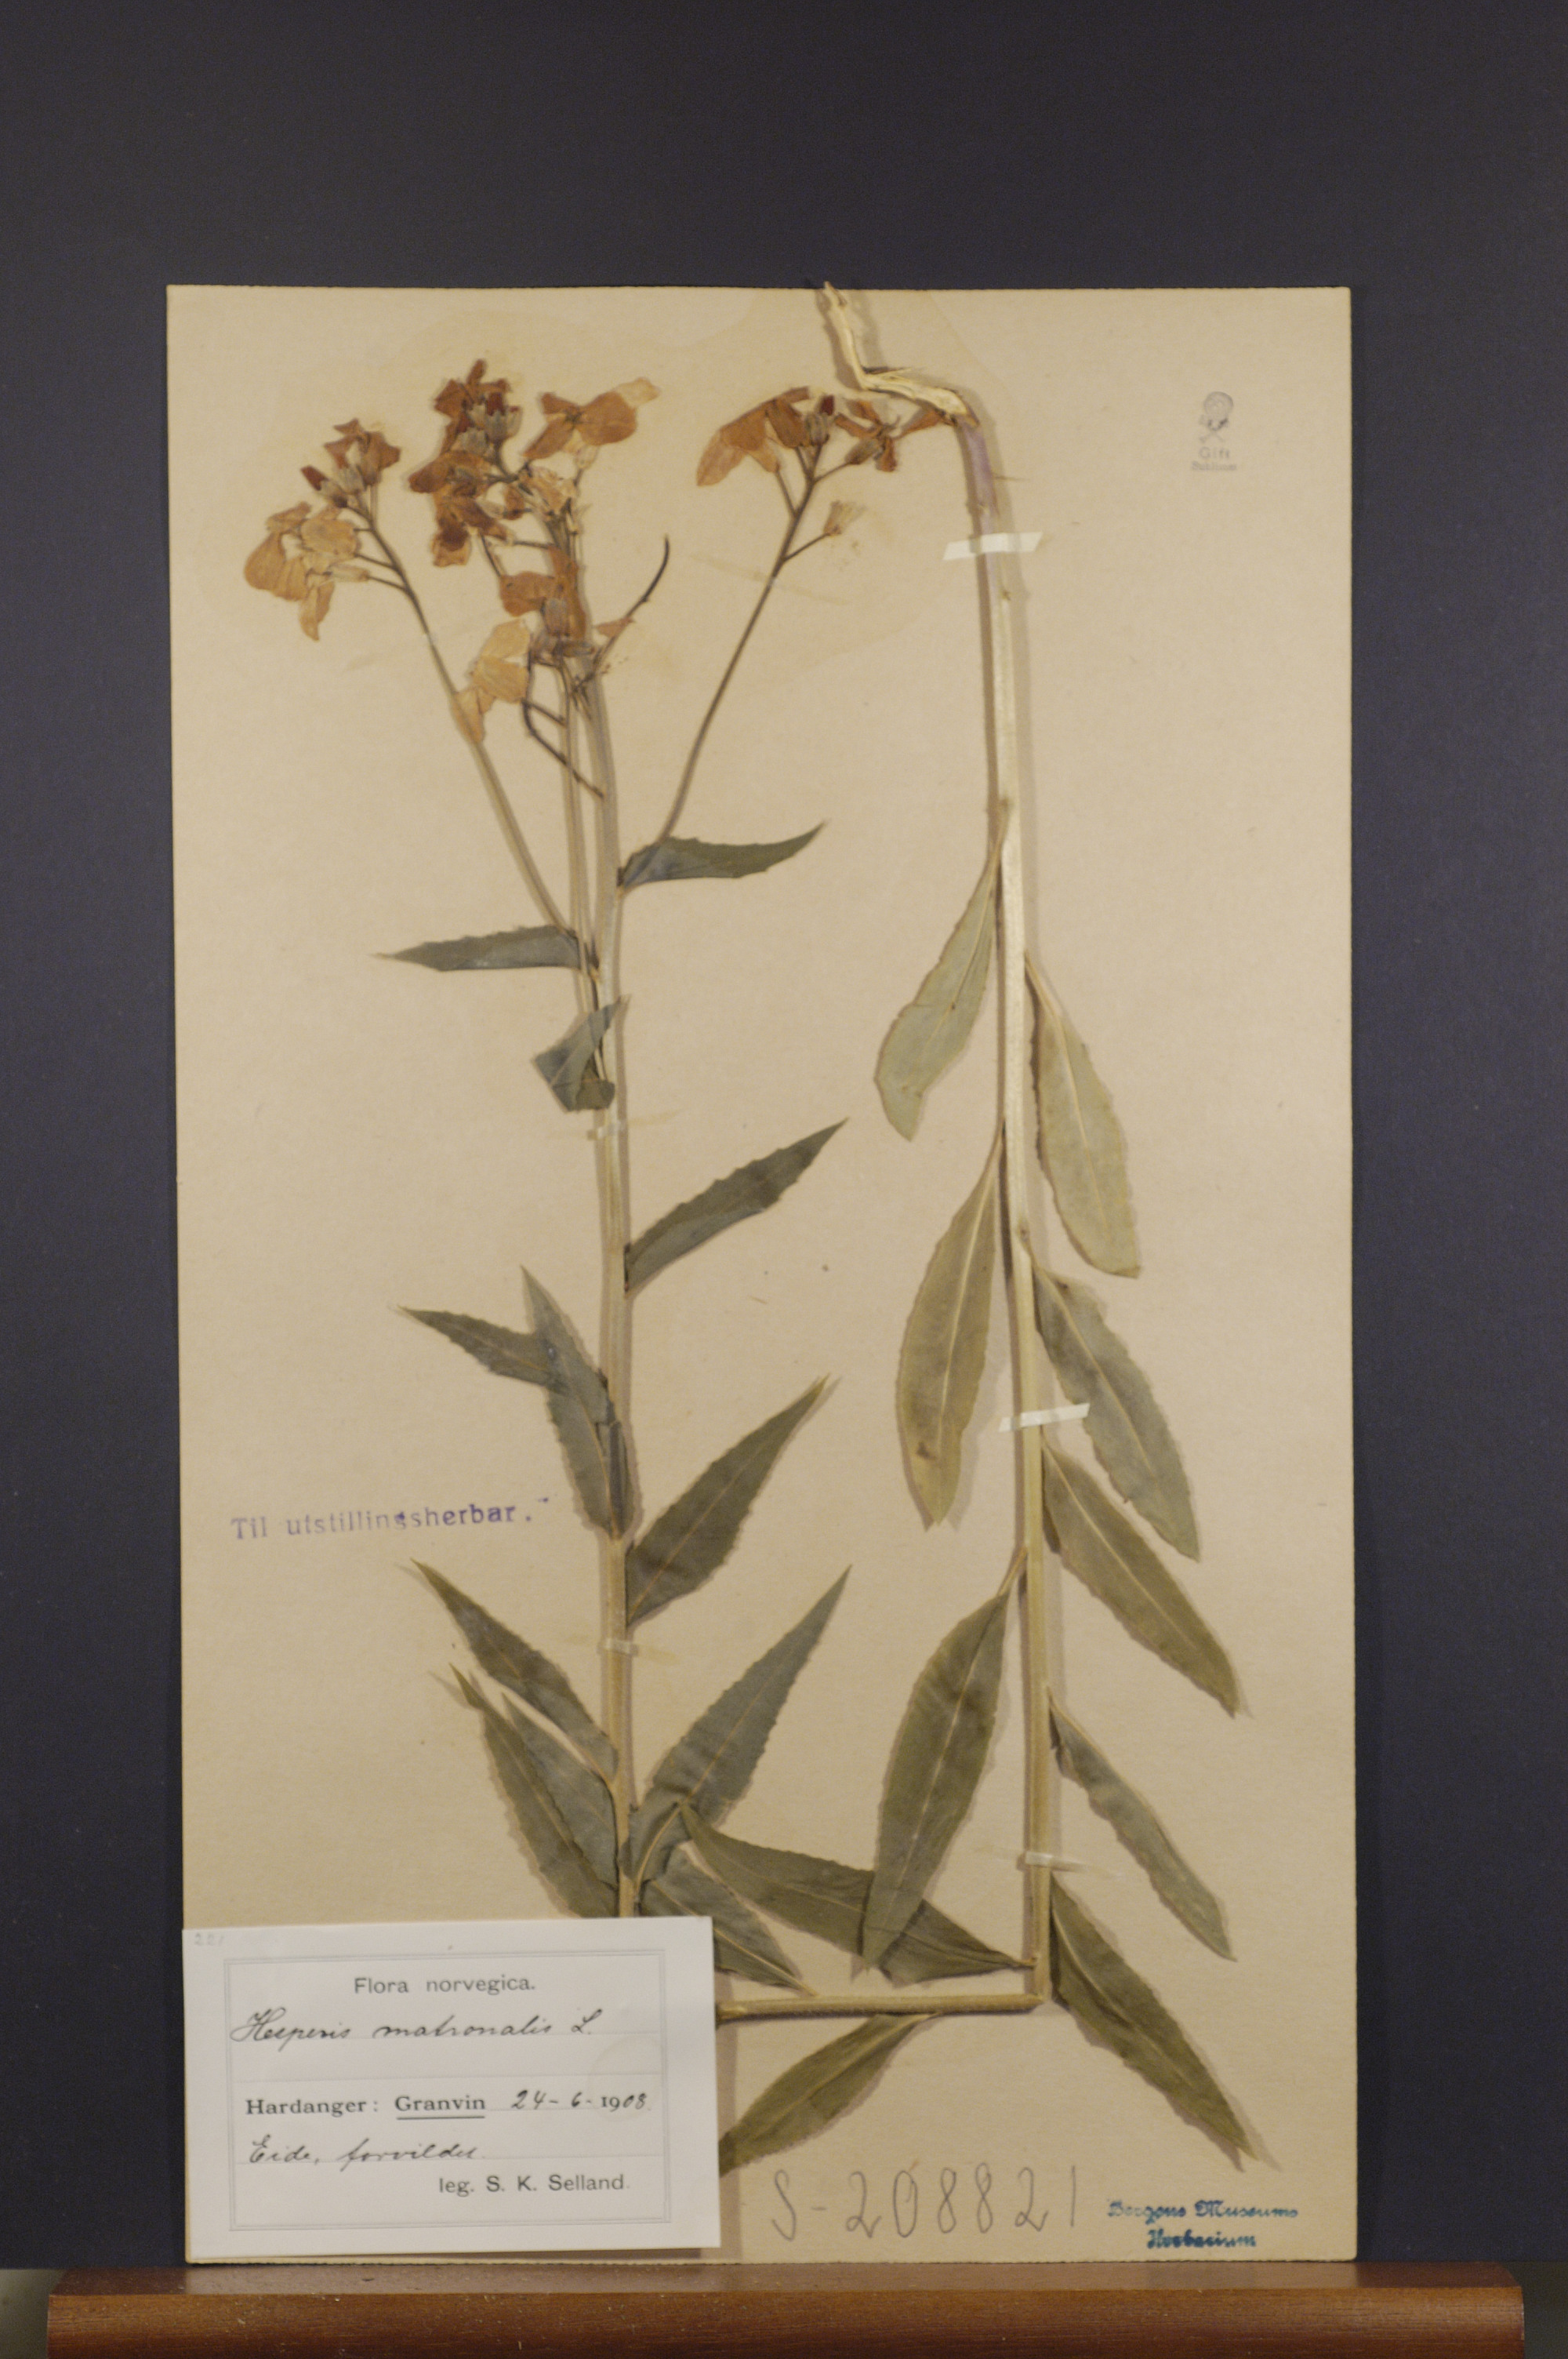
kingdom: Plantae
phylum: Tracheophyta
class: Magnoliopsida
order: Brassicales
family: Brassicaceae
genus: Hesperis
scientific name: Hesperis matronalis
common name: Dame's-violet
